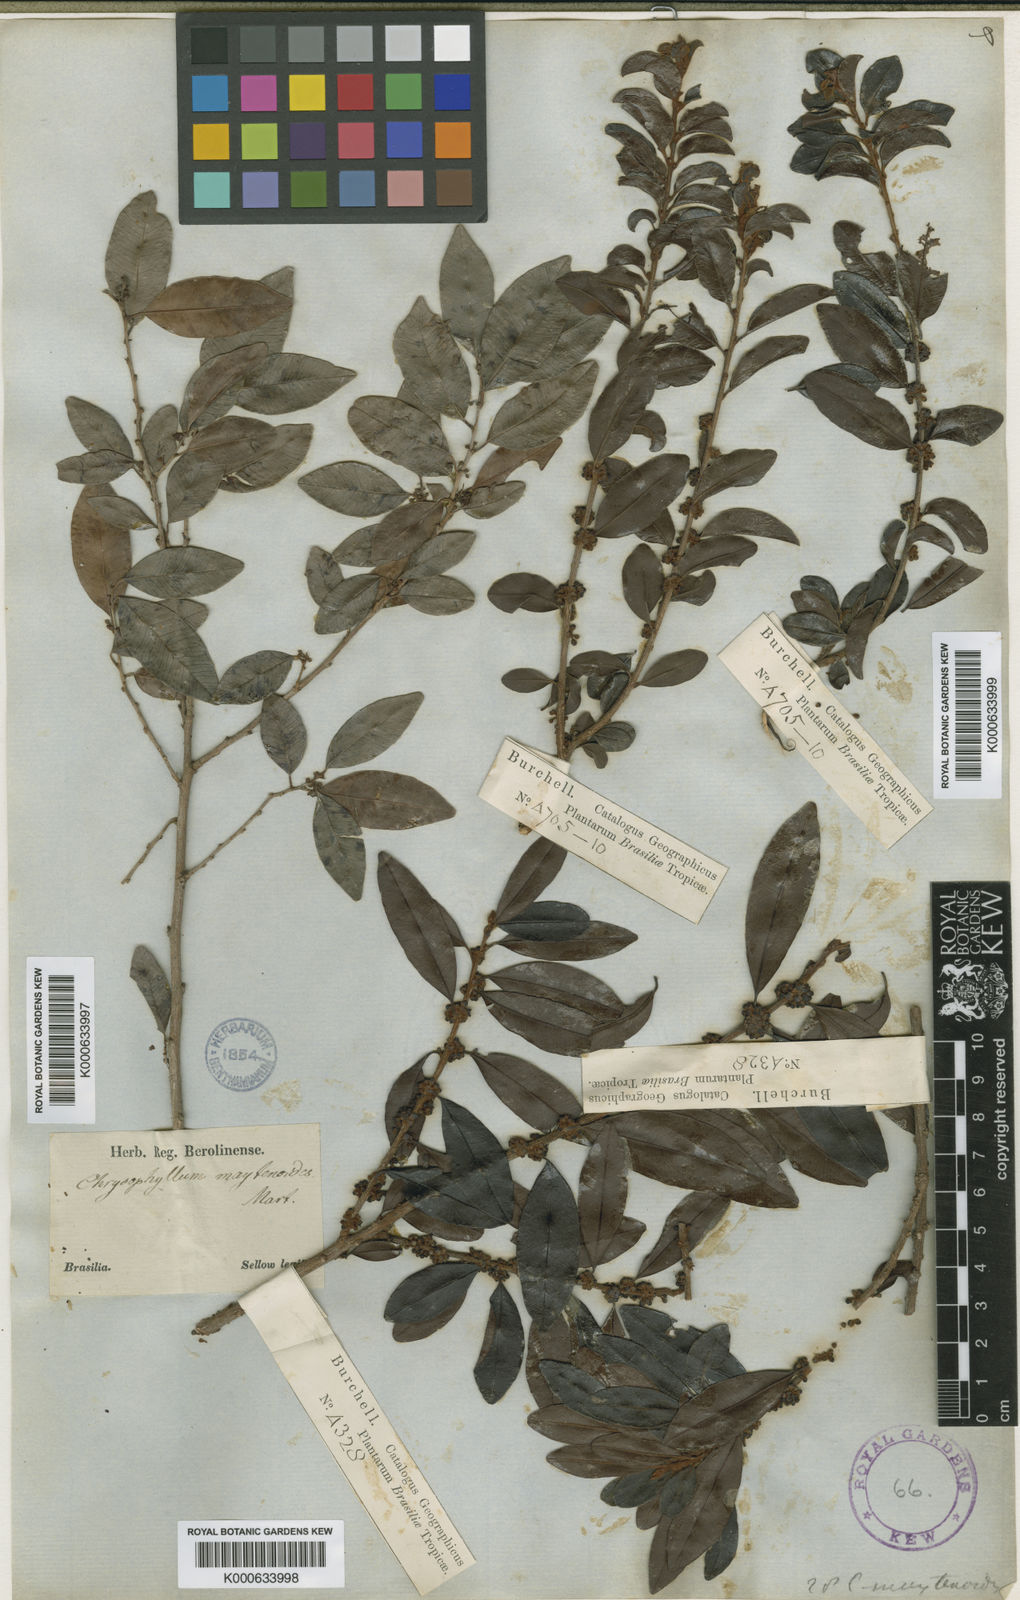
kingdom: Plantae
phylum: Tracheophyta
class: Magnoliopsida
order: Ericales
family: Sapotaceae
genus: Chrysophyllum
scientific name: Chrysophyllum marginatum
